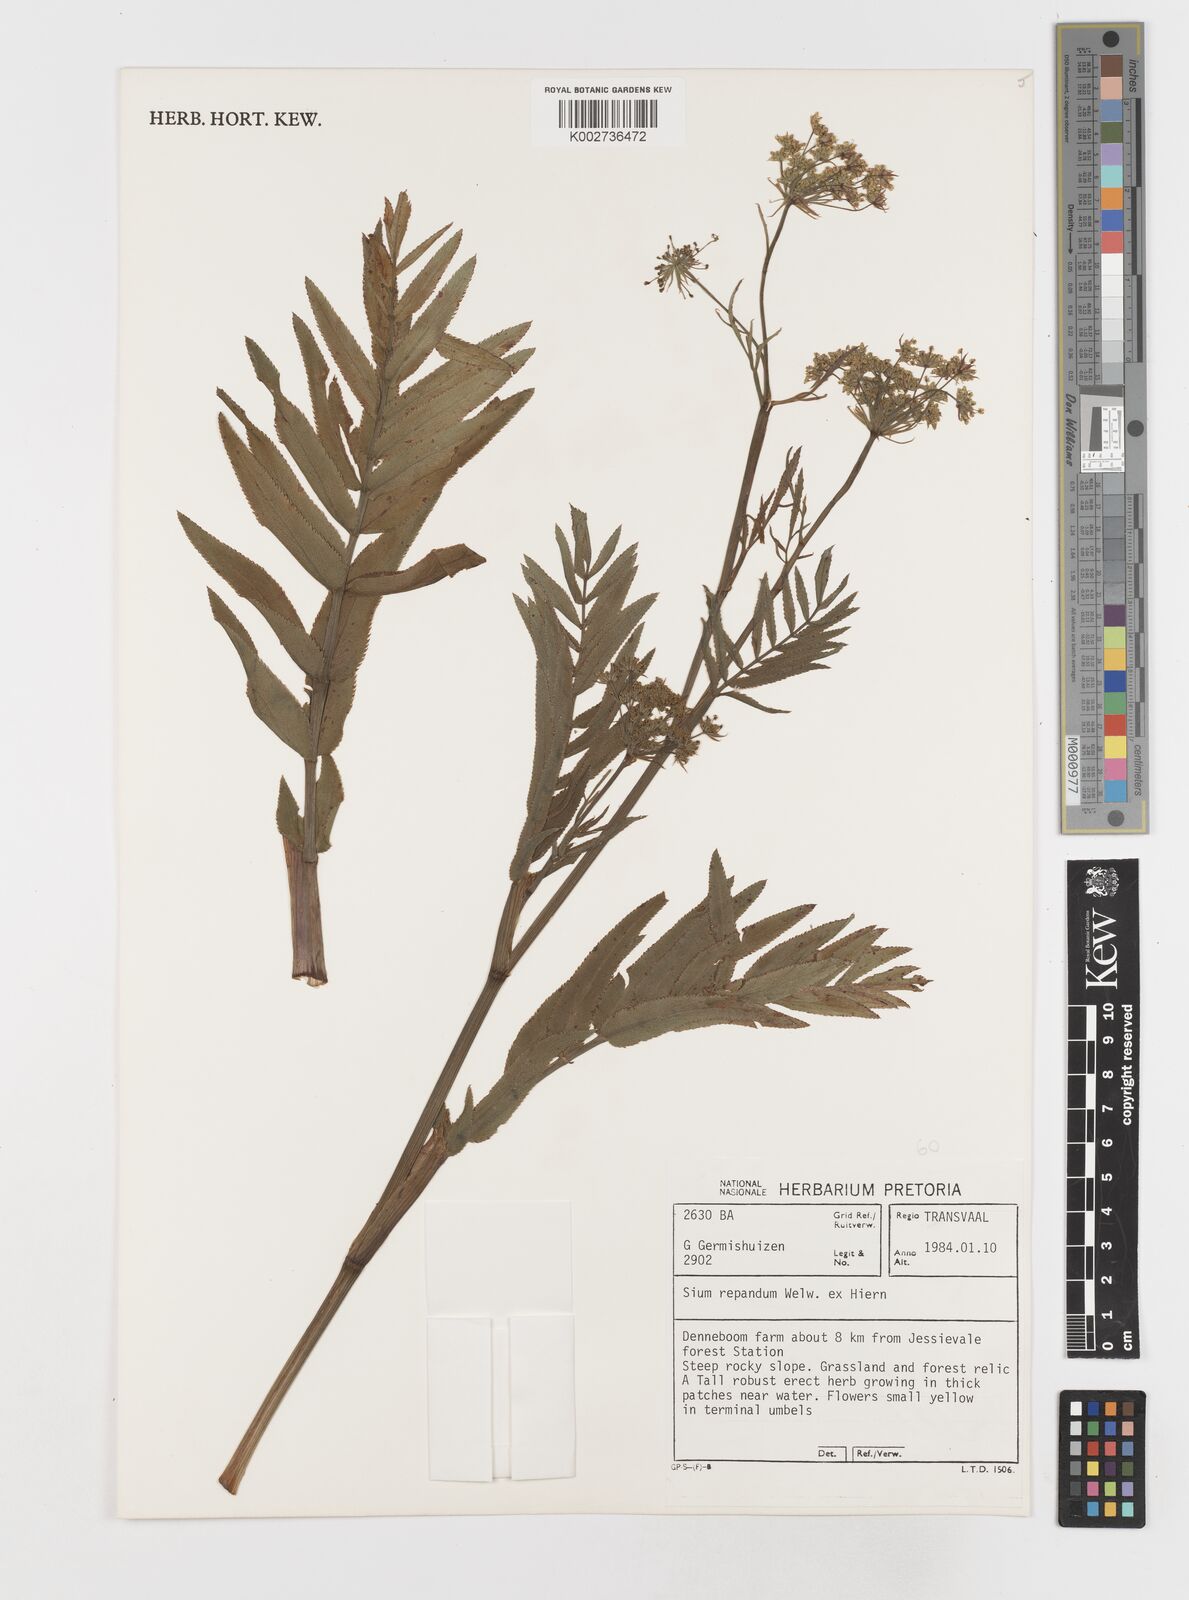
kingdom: Plantae
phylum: Tracheophyta
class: Magnoliopsida
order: Apiales
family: Apiaceae
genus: Berula
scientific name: Berula repanda
